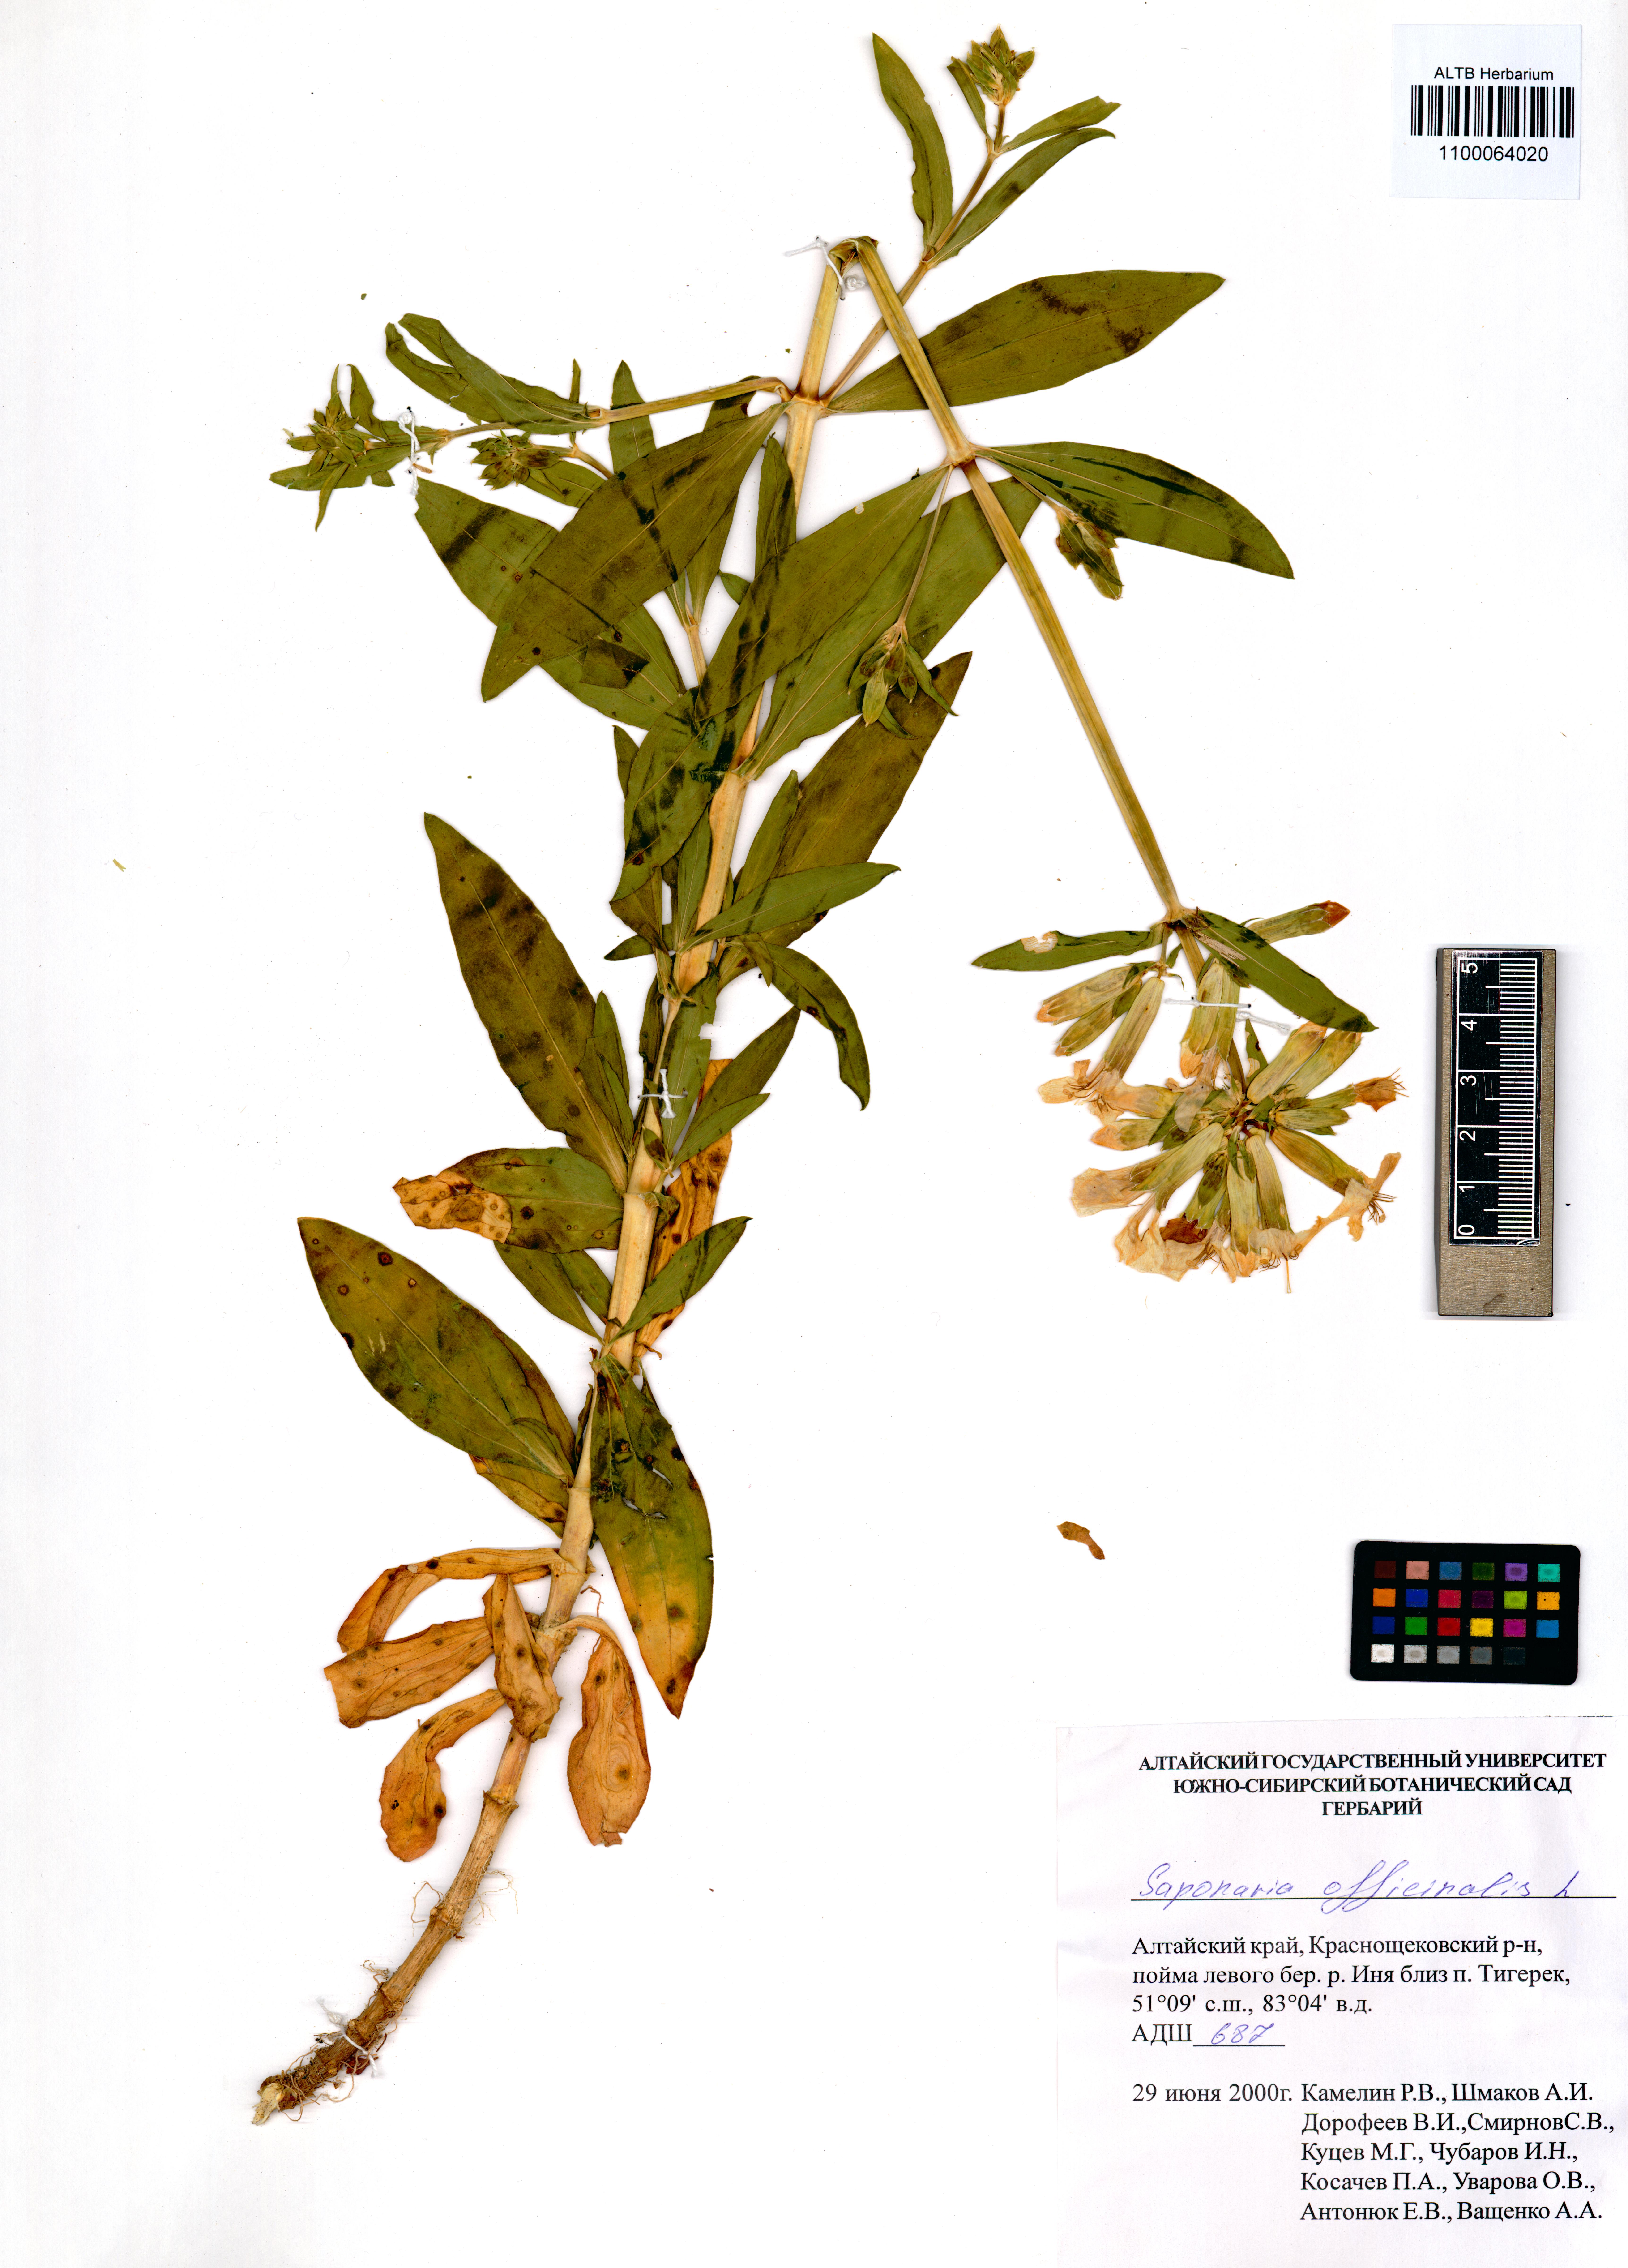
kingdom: Plantae
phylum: Tracheophyta
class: Magnoliopsida
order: Caryophyllales
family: Caryophyllaceae
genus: Saponaria
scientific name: Saponaria officinalis
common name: Soapwort
